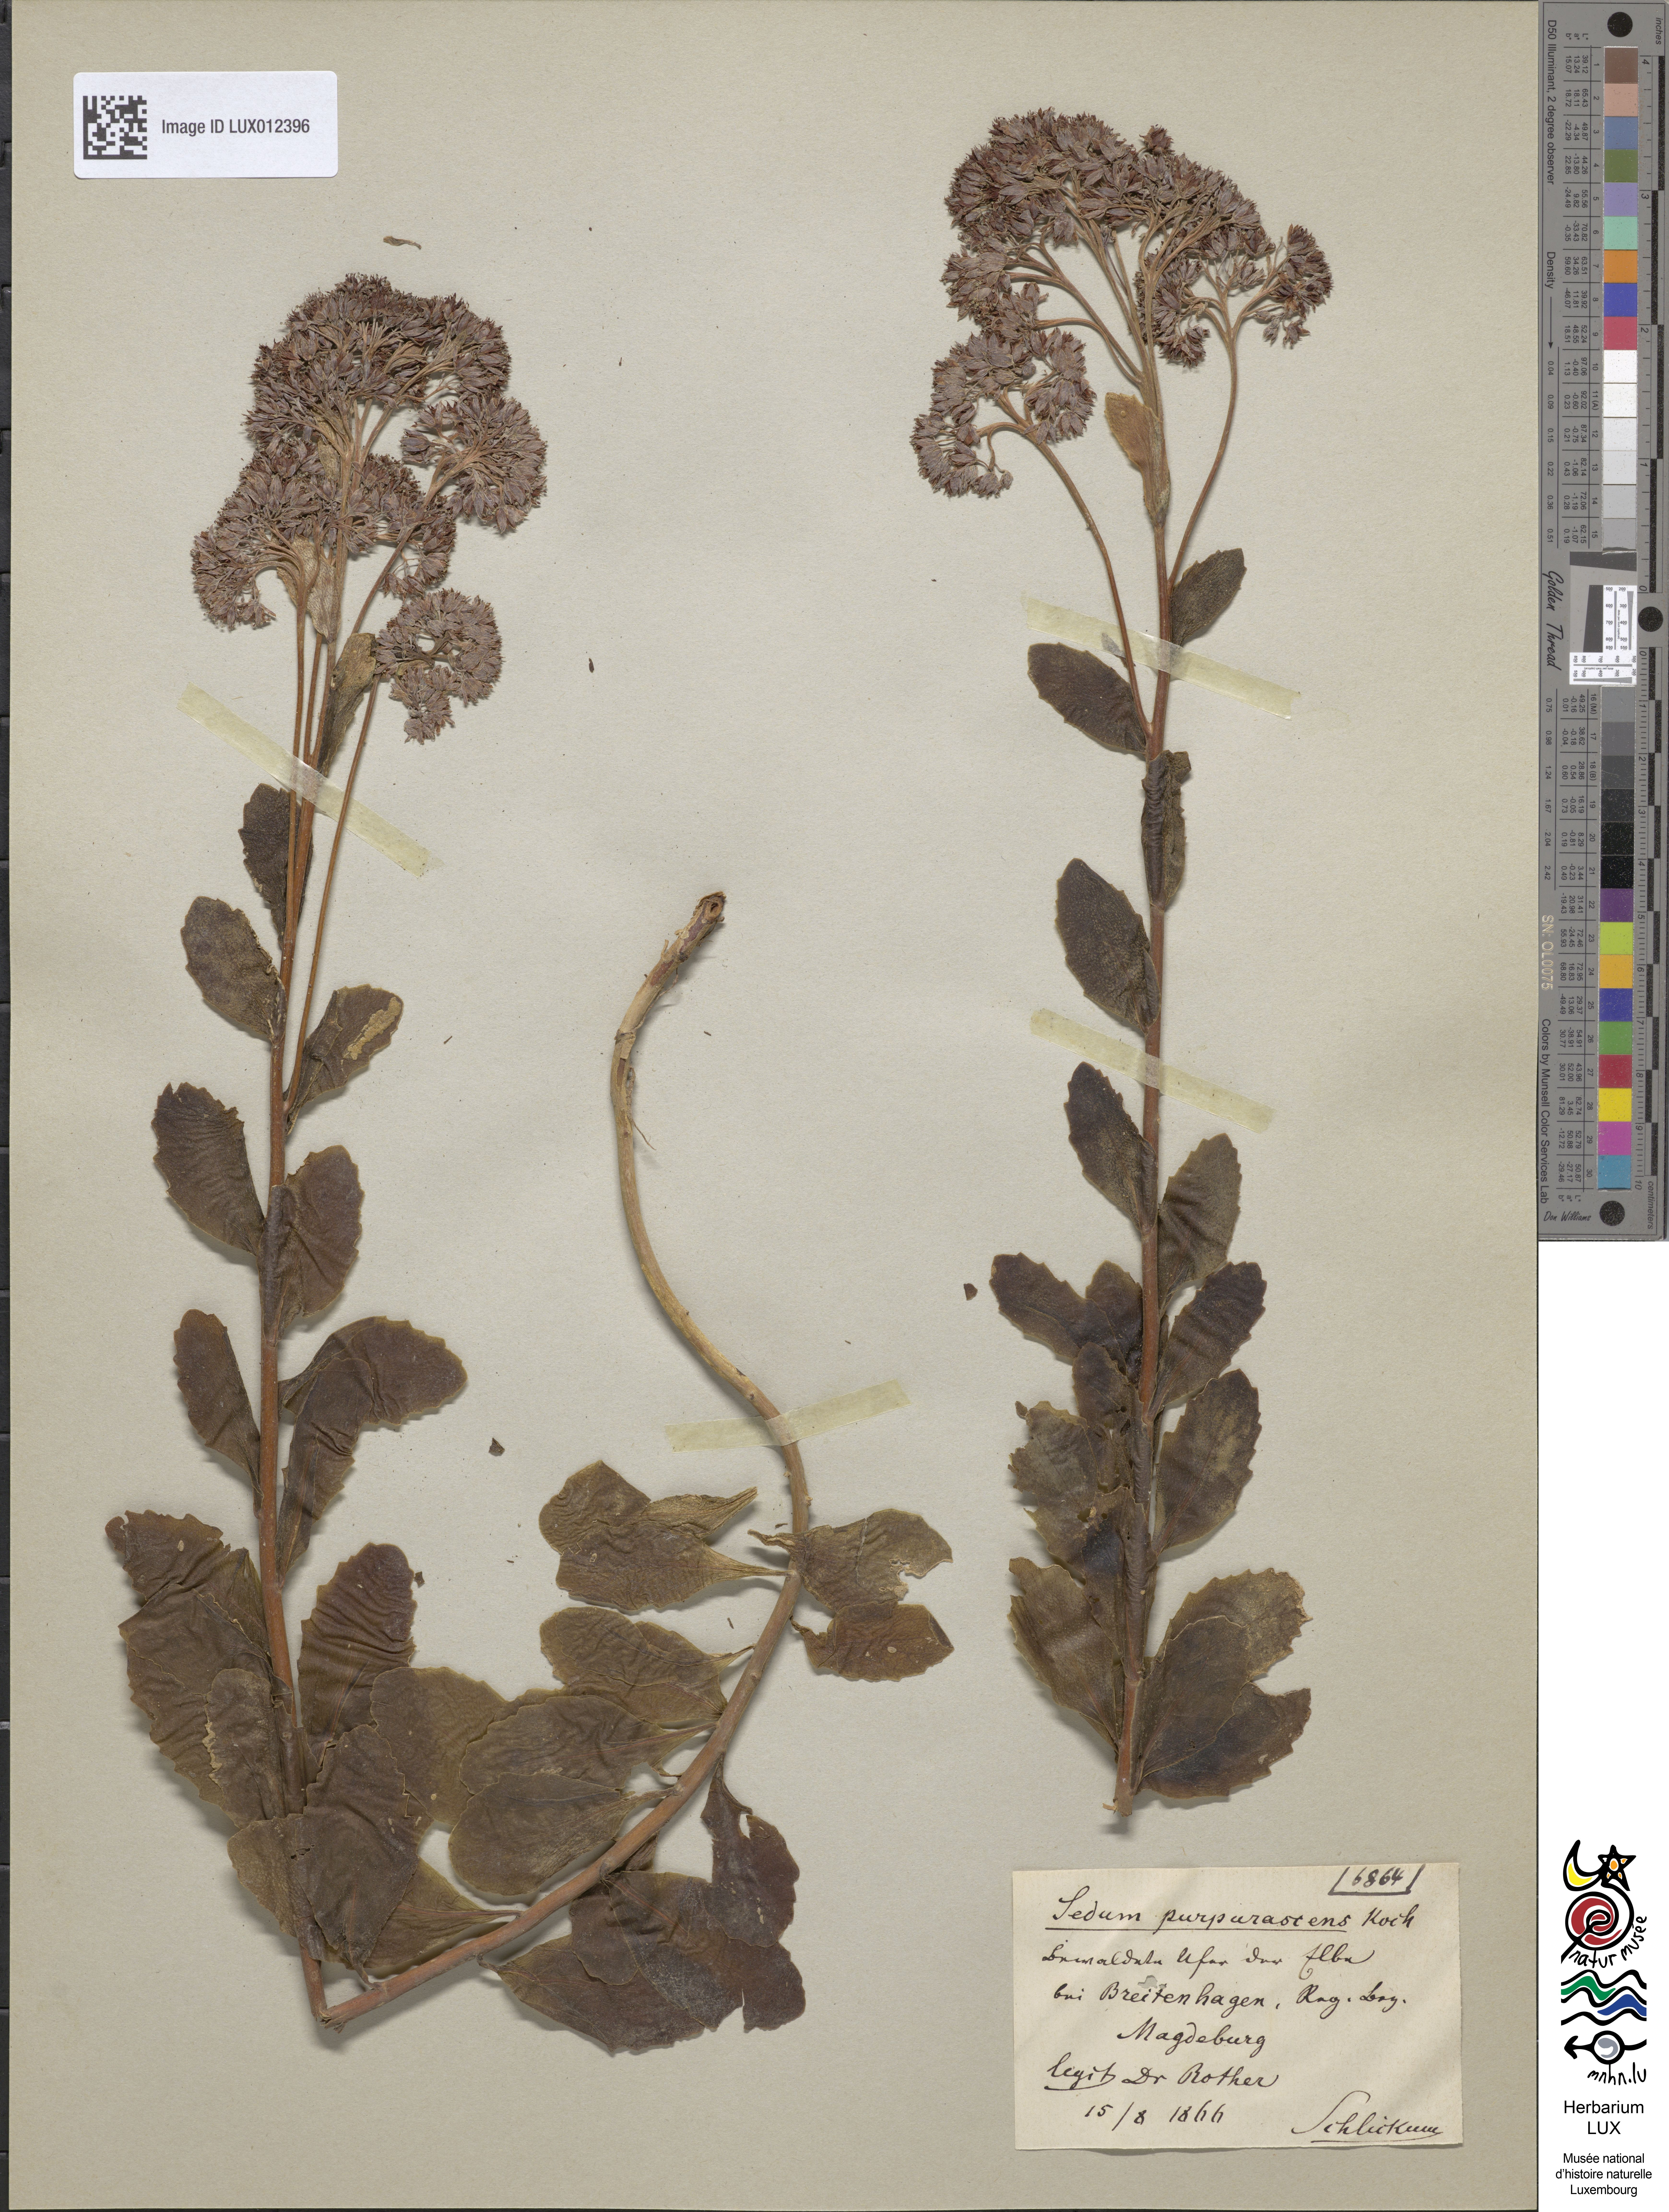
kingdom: Plantae
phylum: Tracheophyta
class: Magnoliopsida
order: Saxifragales
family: Crassulaceae
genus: Hylotelephium
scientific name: Hylotelephium telephium
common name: Live-forever
